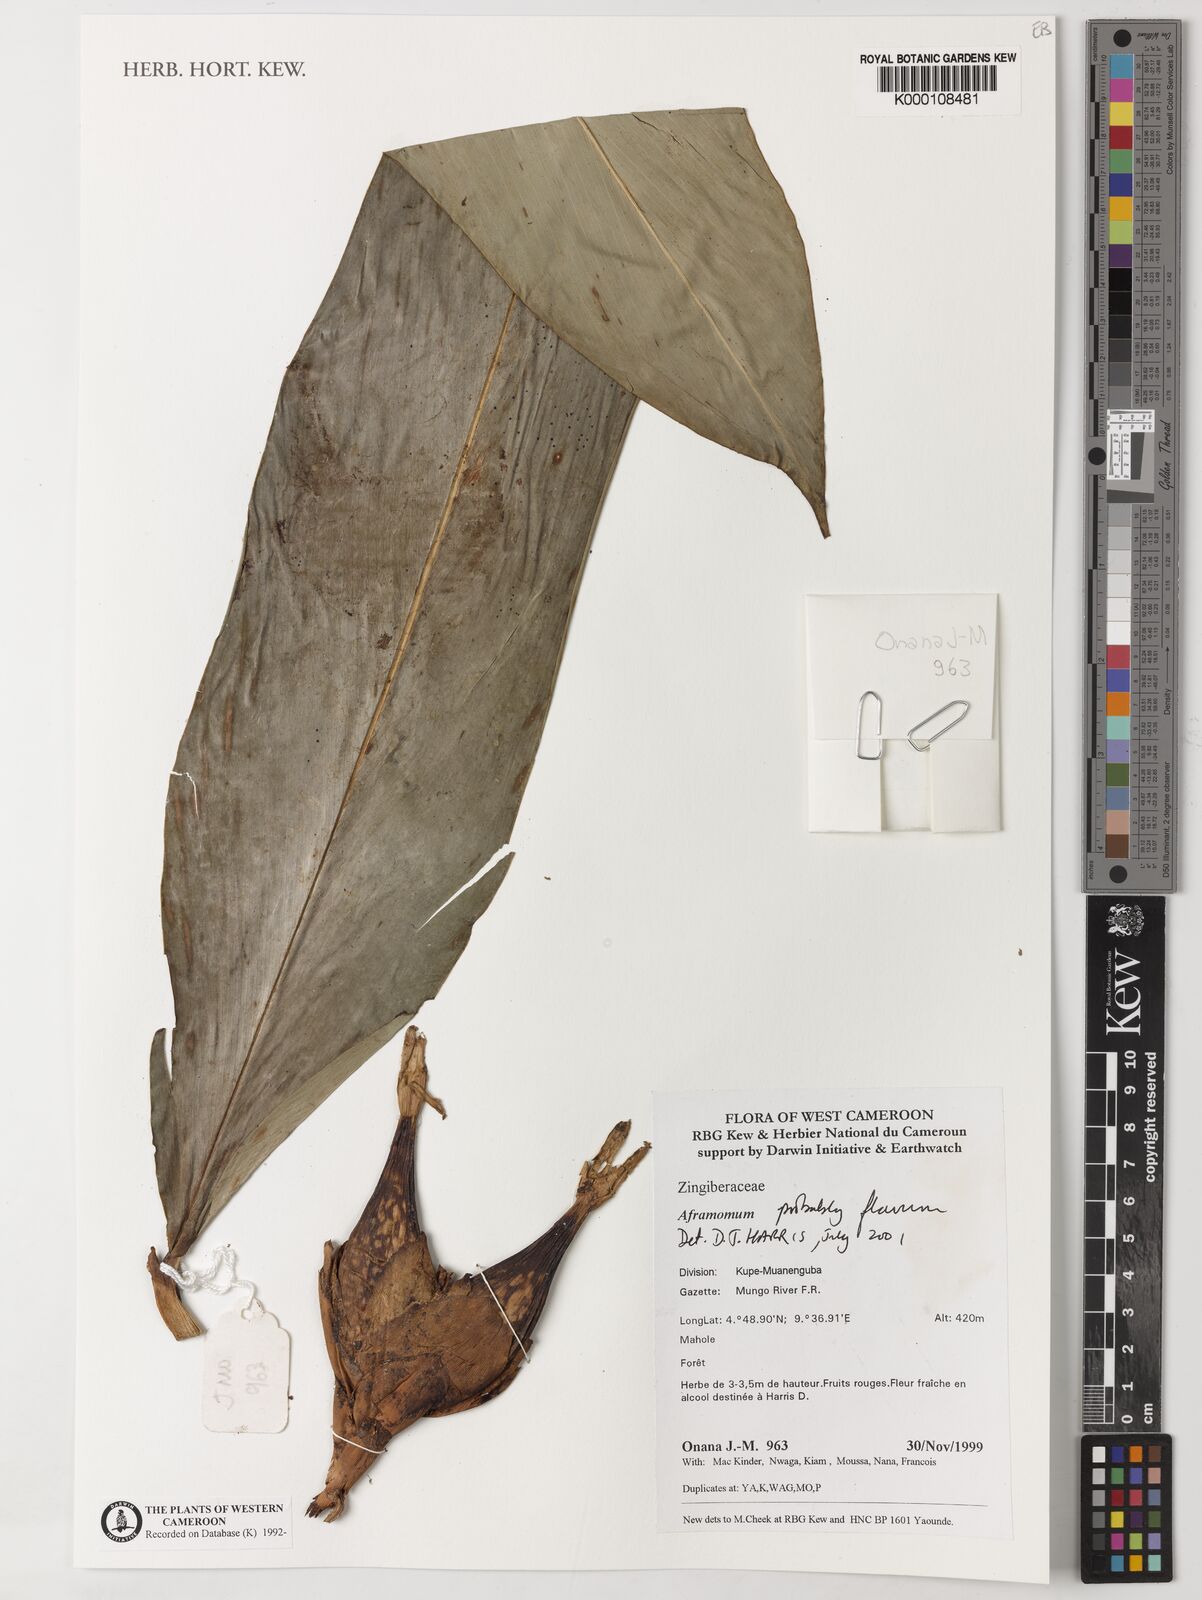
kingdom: Plantae
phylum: Tracheophyta
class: Liliopsida
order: Zingiberales
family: Zingiberaceae
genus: Aframomum
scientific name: Aframomum daniellii
